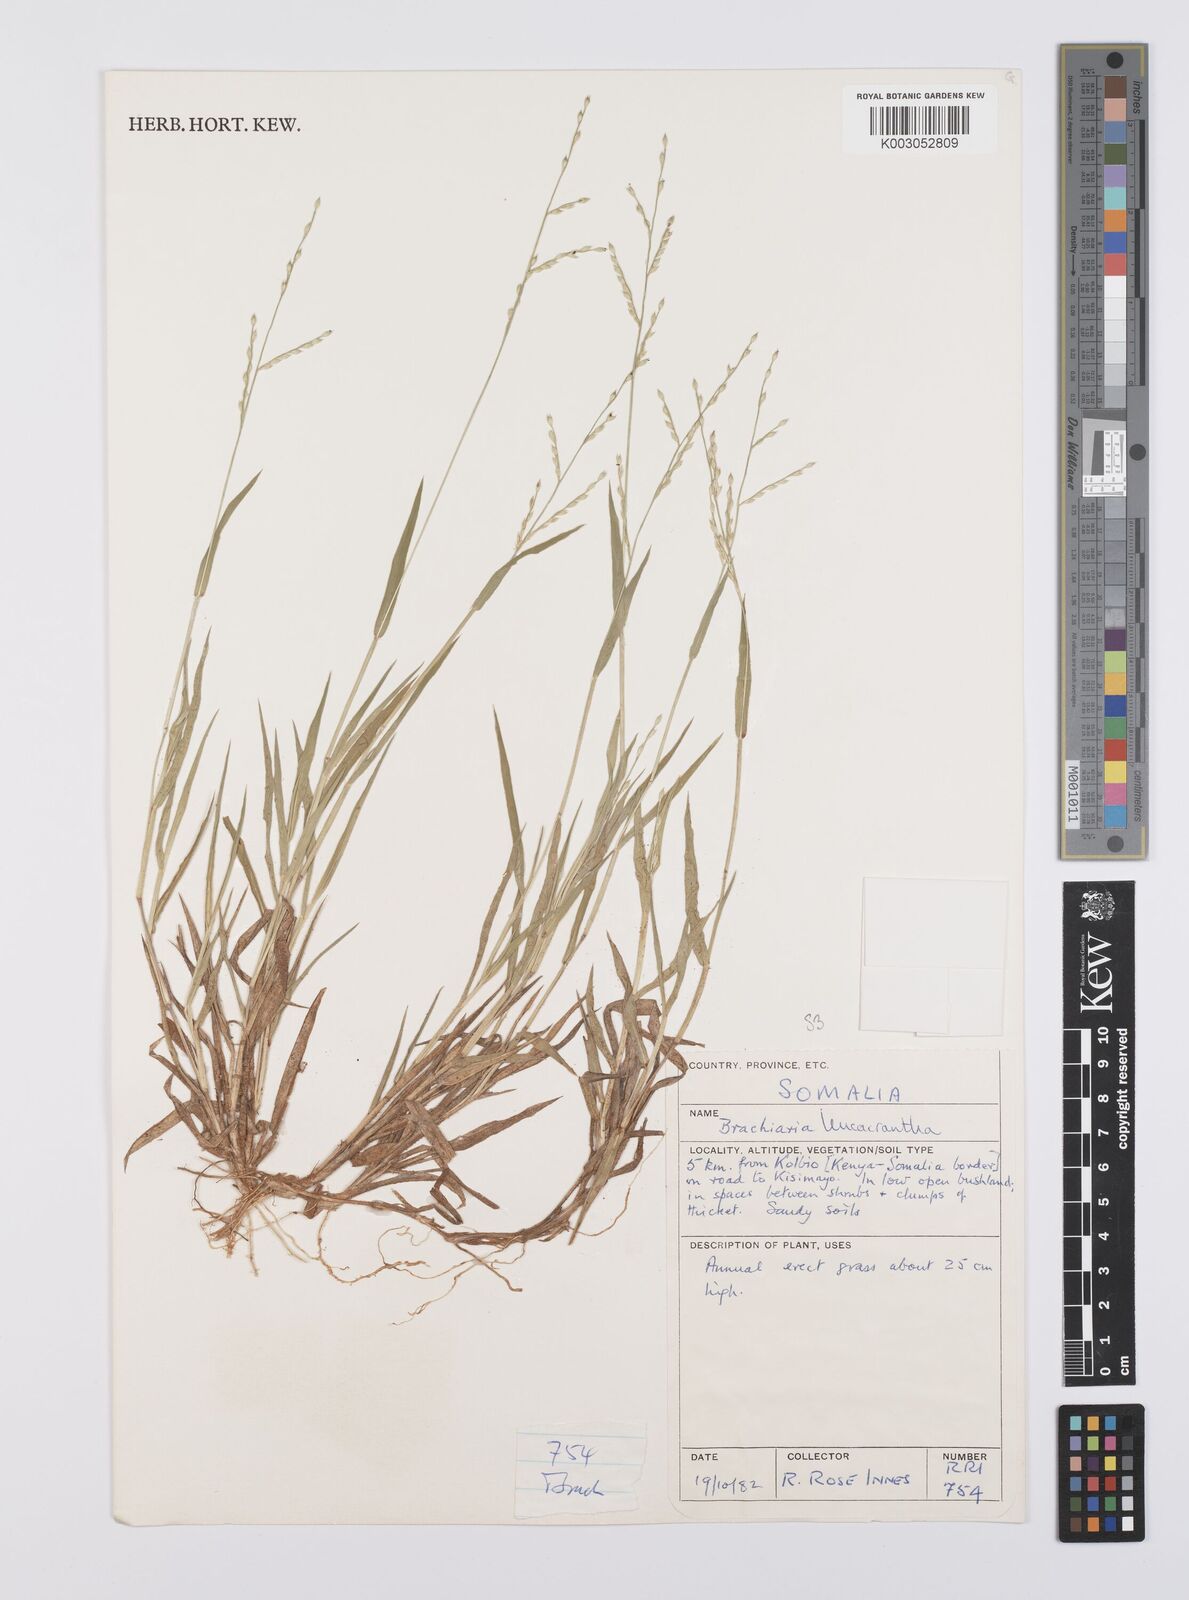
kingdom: Plantae
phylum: Tracheophyta
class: Liliopsida
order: Poales
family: Poaceae
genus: Urochloa
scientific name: Urochloa xantholeuca
